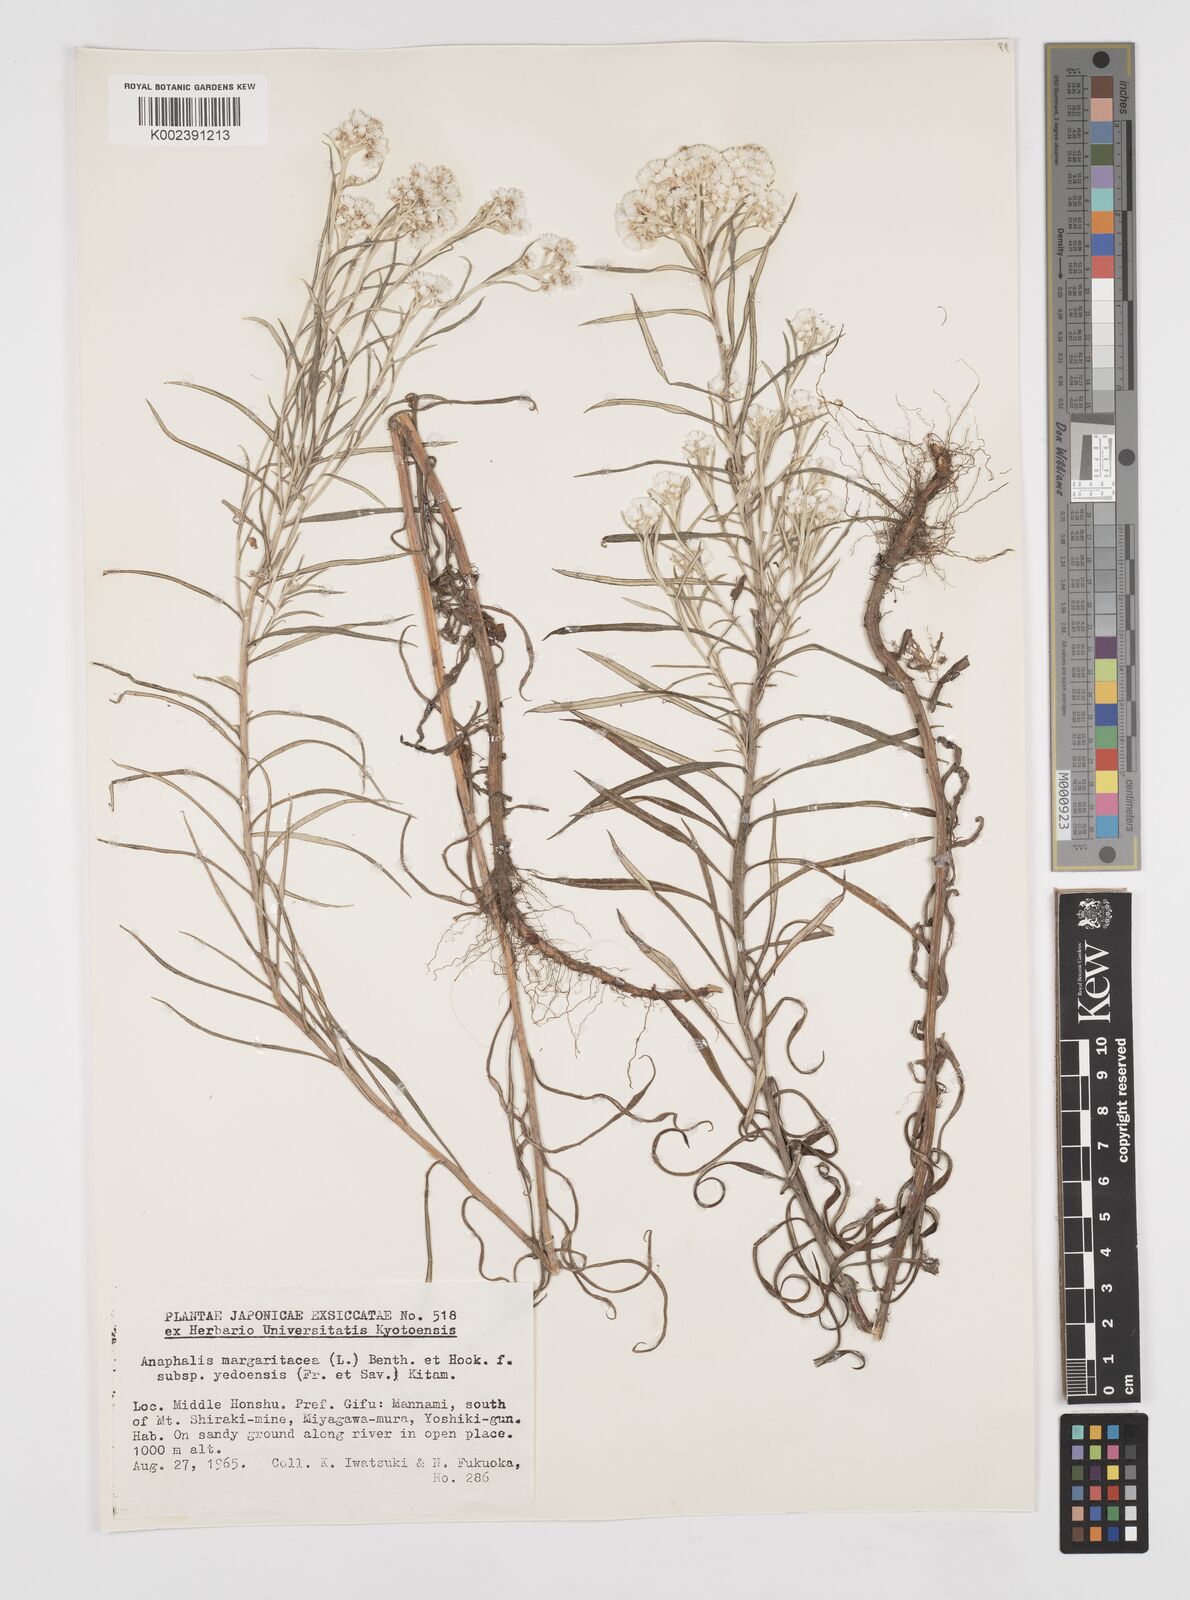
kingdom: Plantae
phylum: Tracheophyta
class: Magnoliopsida
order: Asterales
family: Asteraceae
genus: Anaphalis
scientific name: Anaphalis margaritacea
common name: Pearly everlasting
